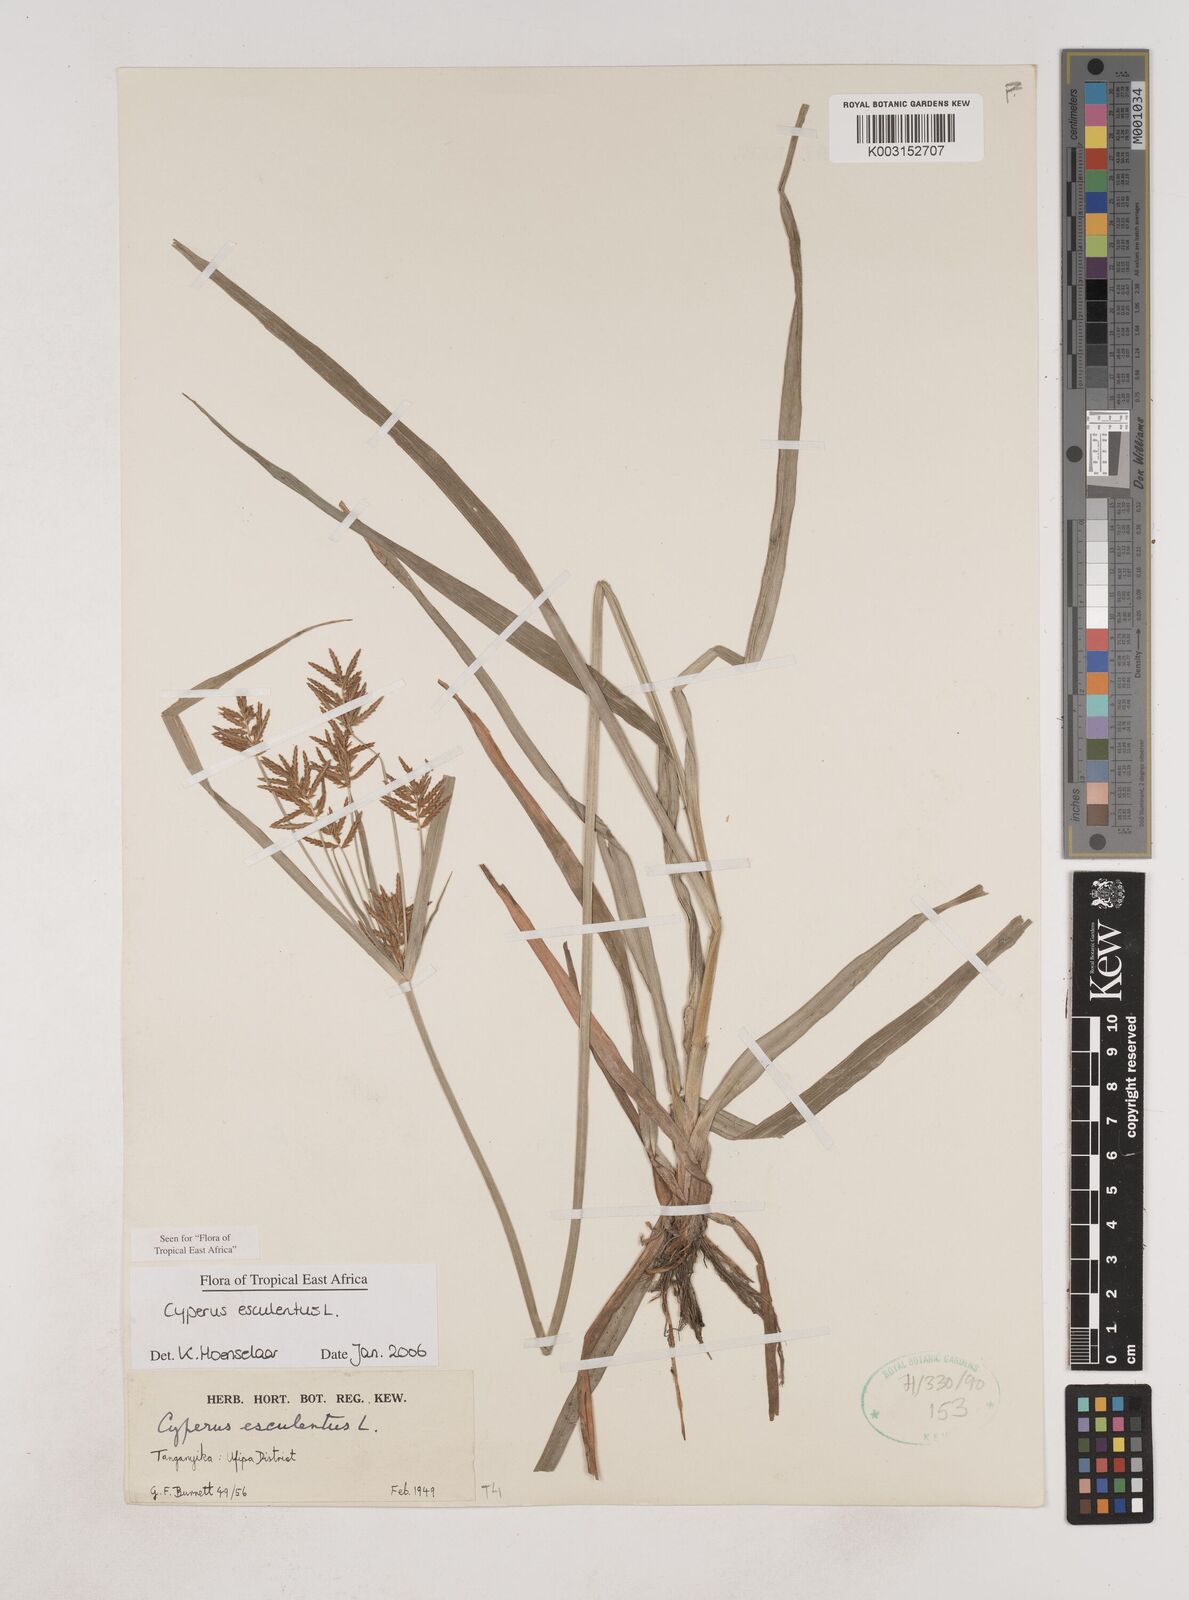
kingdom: Plantae
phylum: Tracheophyta
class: Liliopsida
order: Poales
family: Cyperaceae
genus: Cyperus
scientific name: Cyperus esculentus
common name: Yellow nutsedge
